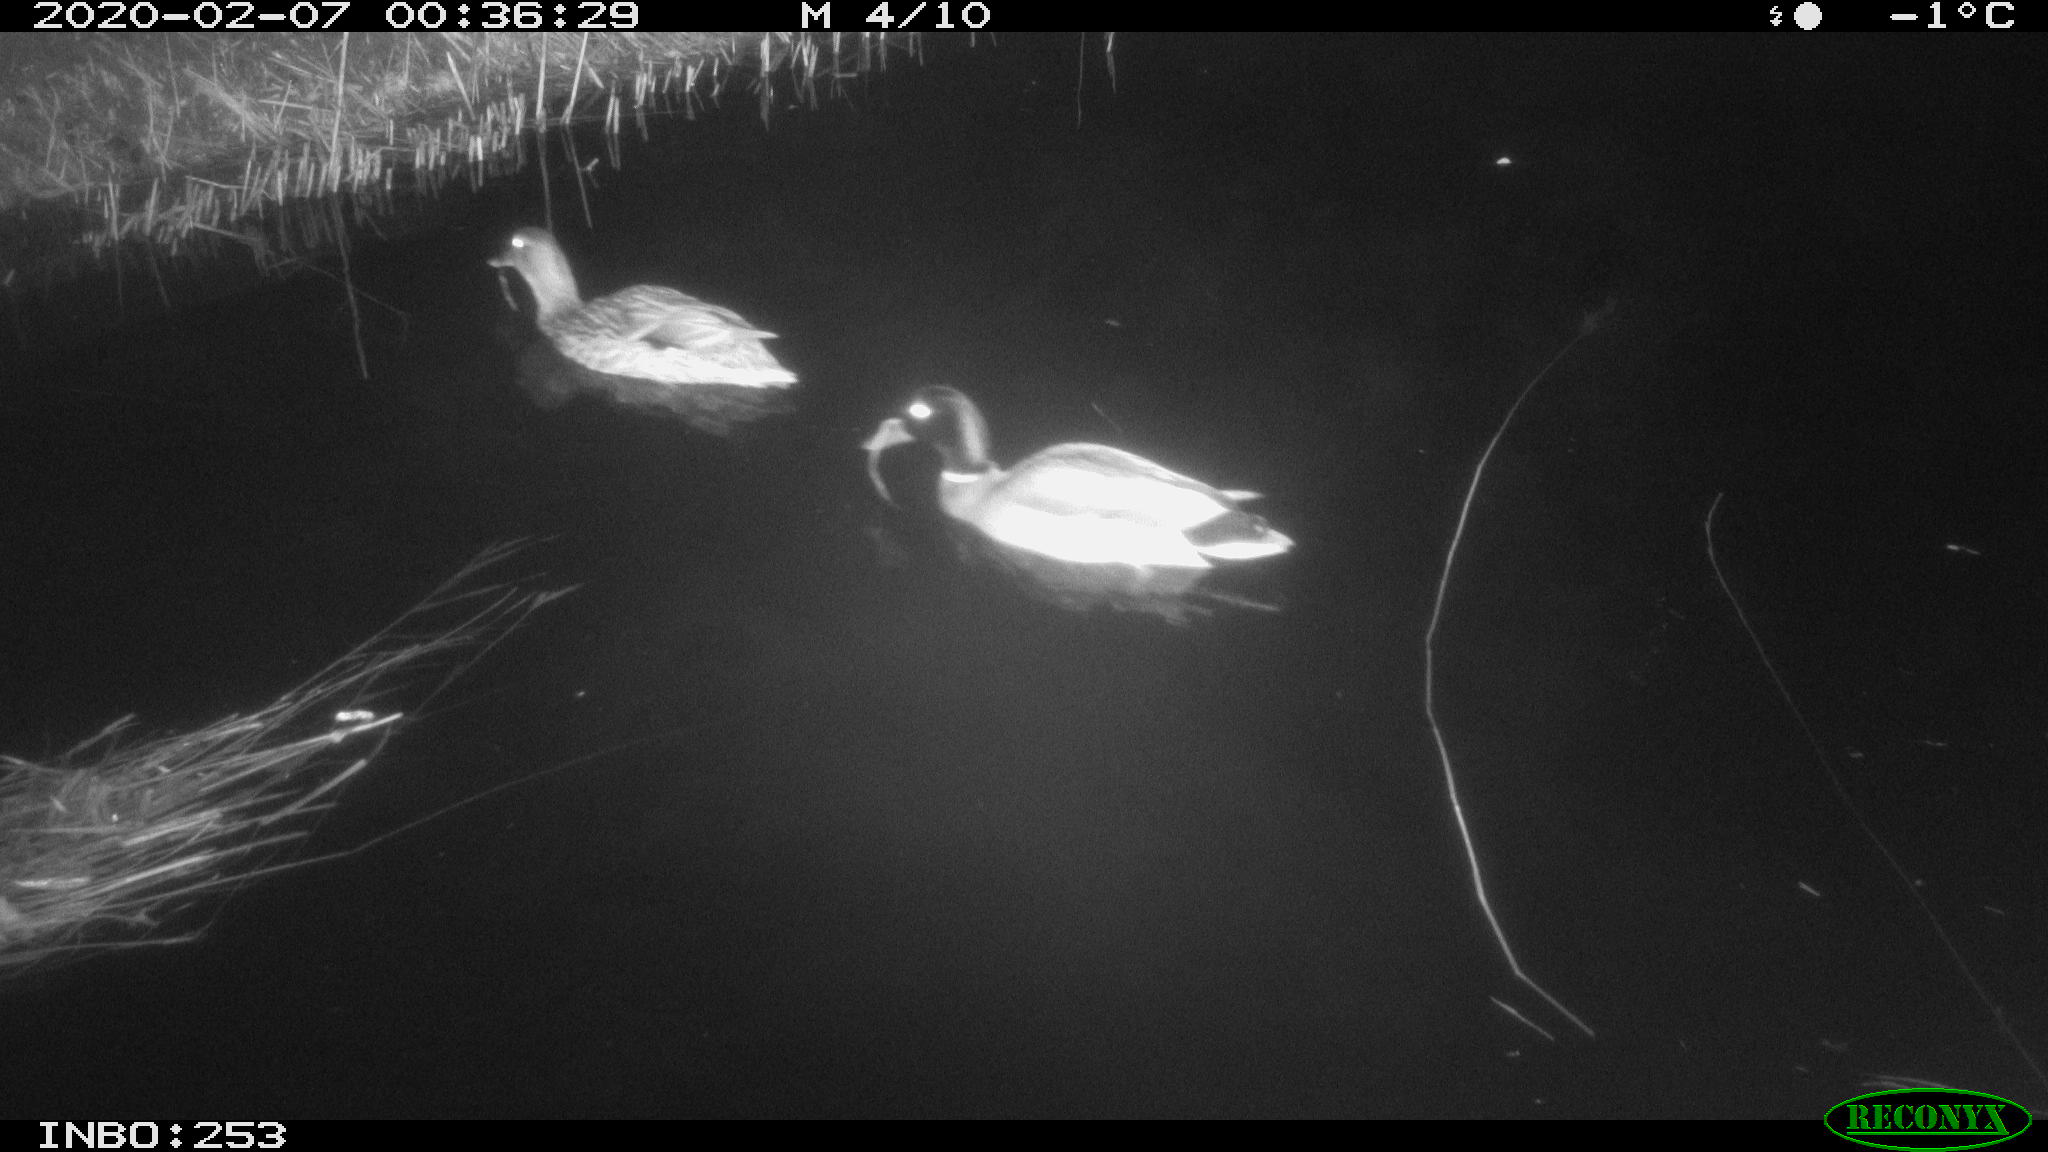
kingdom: Animalia
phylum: Chordata
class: Aves
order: Anseriformes
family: Anatidae
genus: Anas
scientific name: Anas platyrhynchos
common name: Mallard
